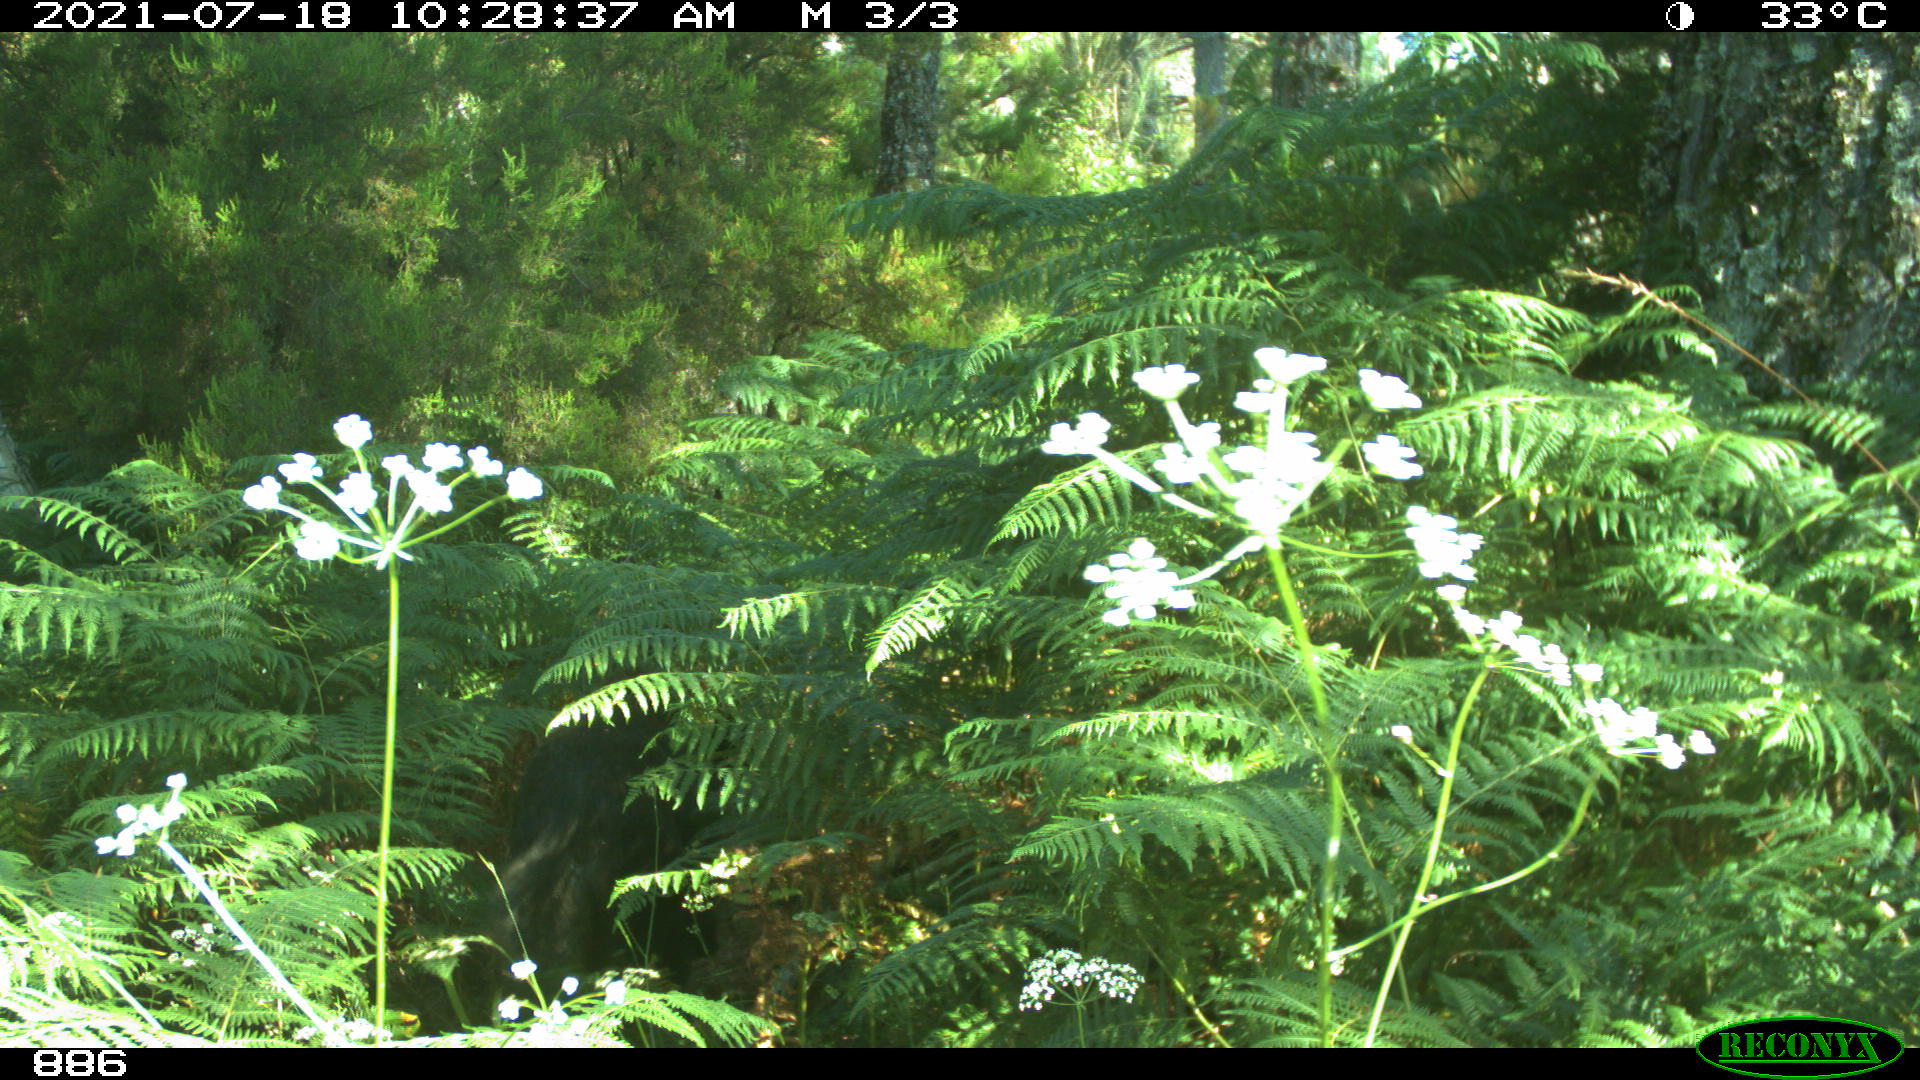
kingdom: Animalia
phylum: Chordata
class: Mammalia
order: Artiodactyla
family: Suidae
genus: Sus
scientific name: Sus scrofa
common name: Wild boar
